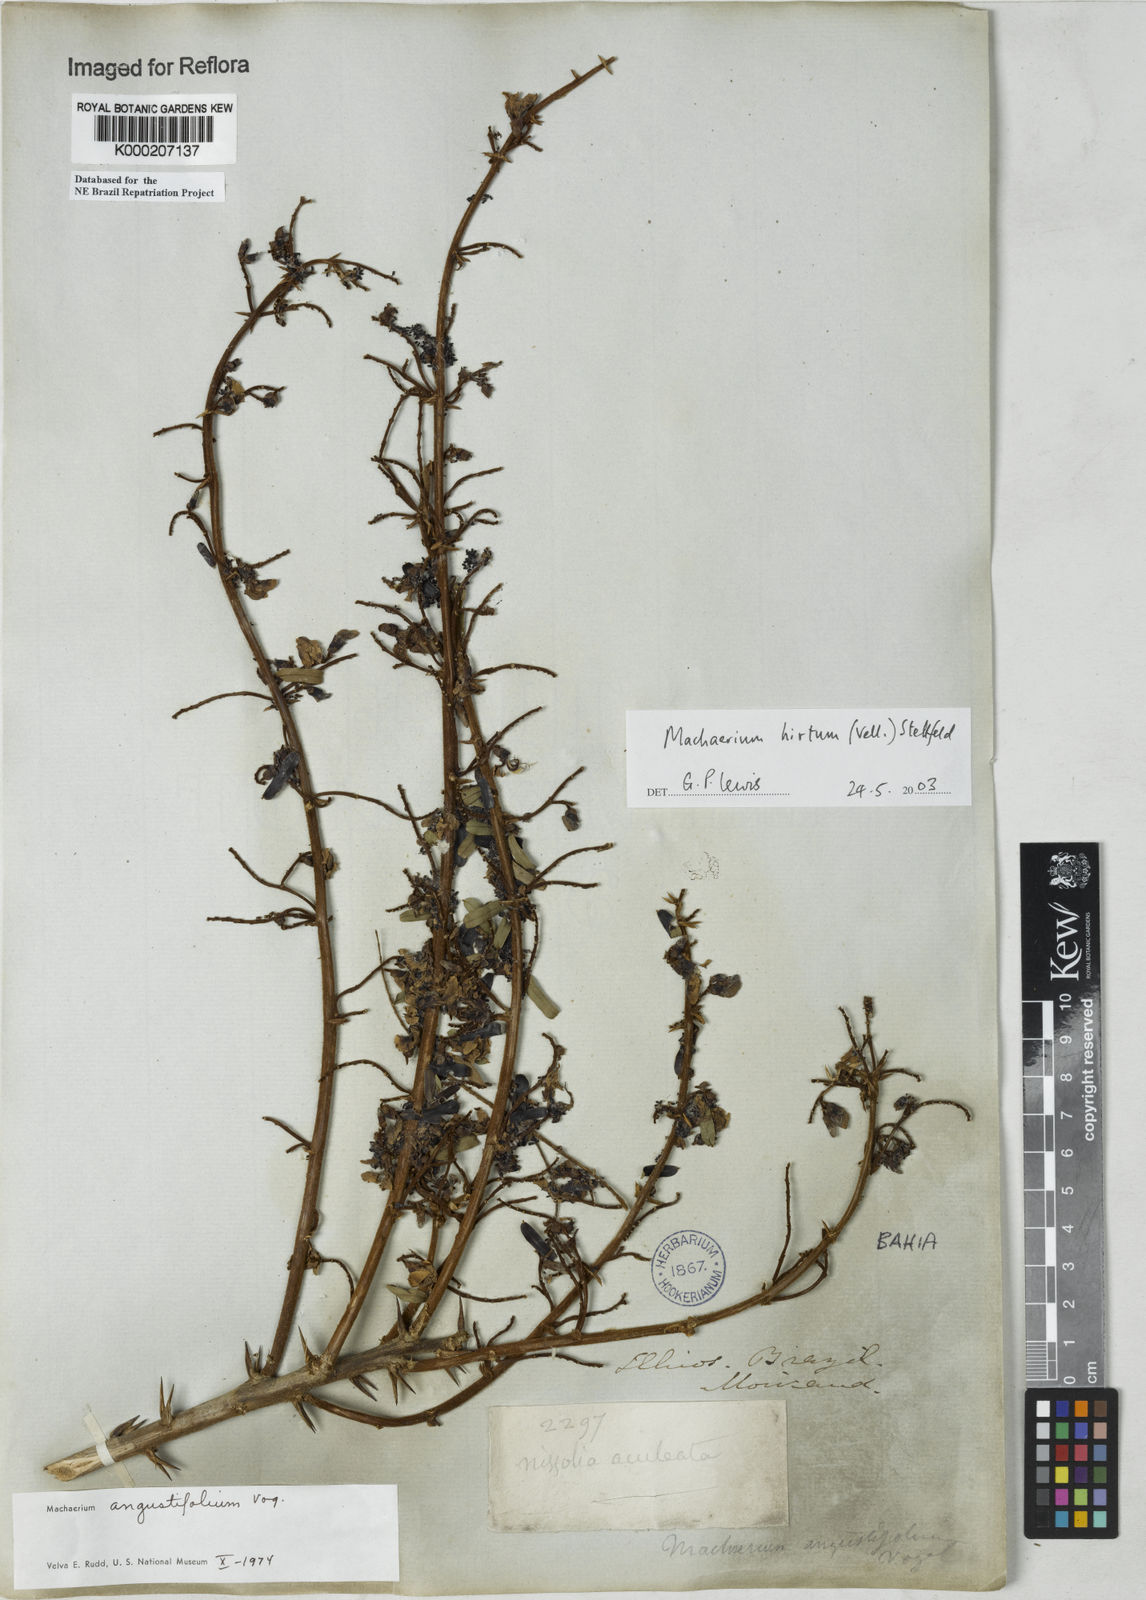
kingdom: Plantae
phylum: Tracheophyta
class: Magnoliopsida
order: Fabales
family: Fabaceae
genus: Machaerium
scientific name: Machaerium hirtum
